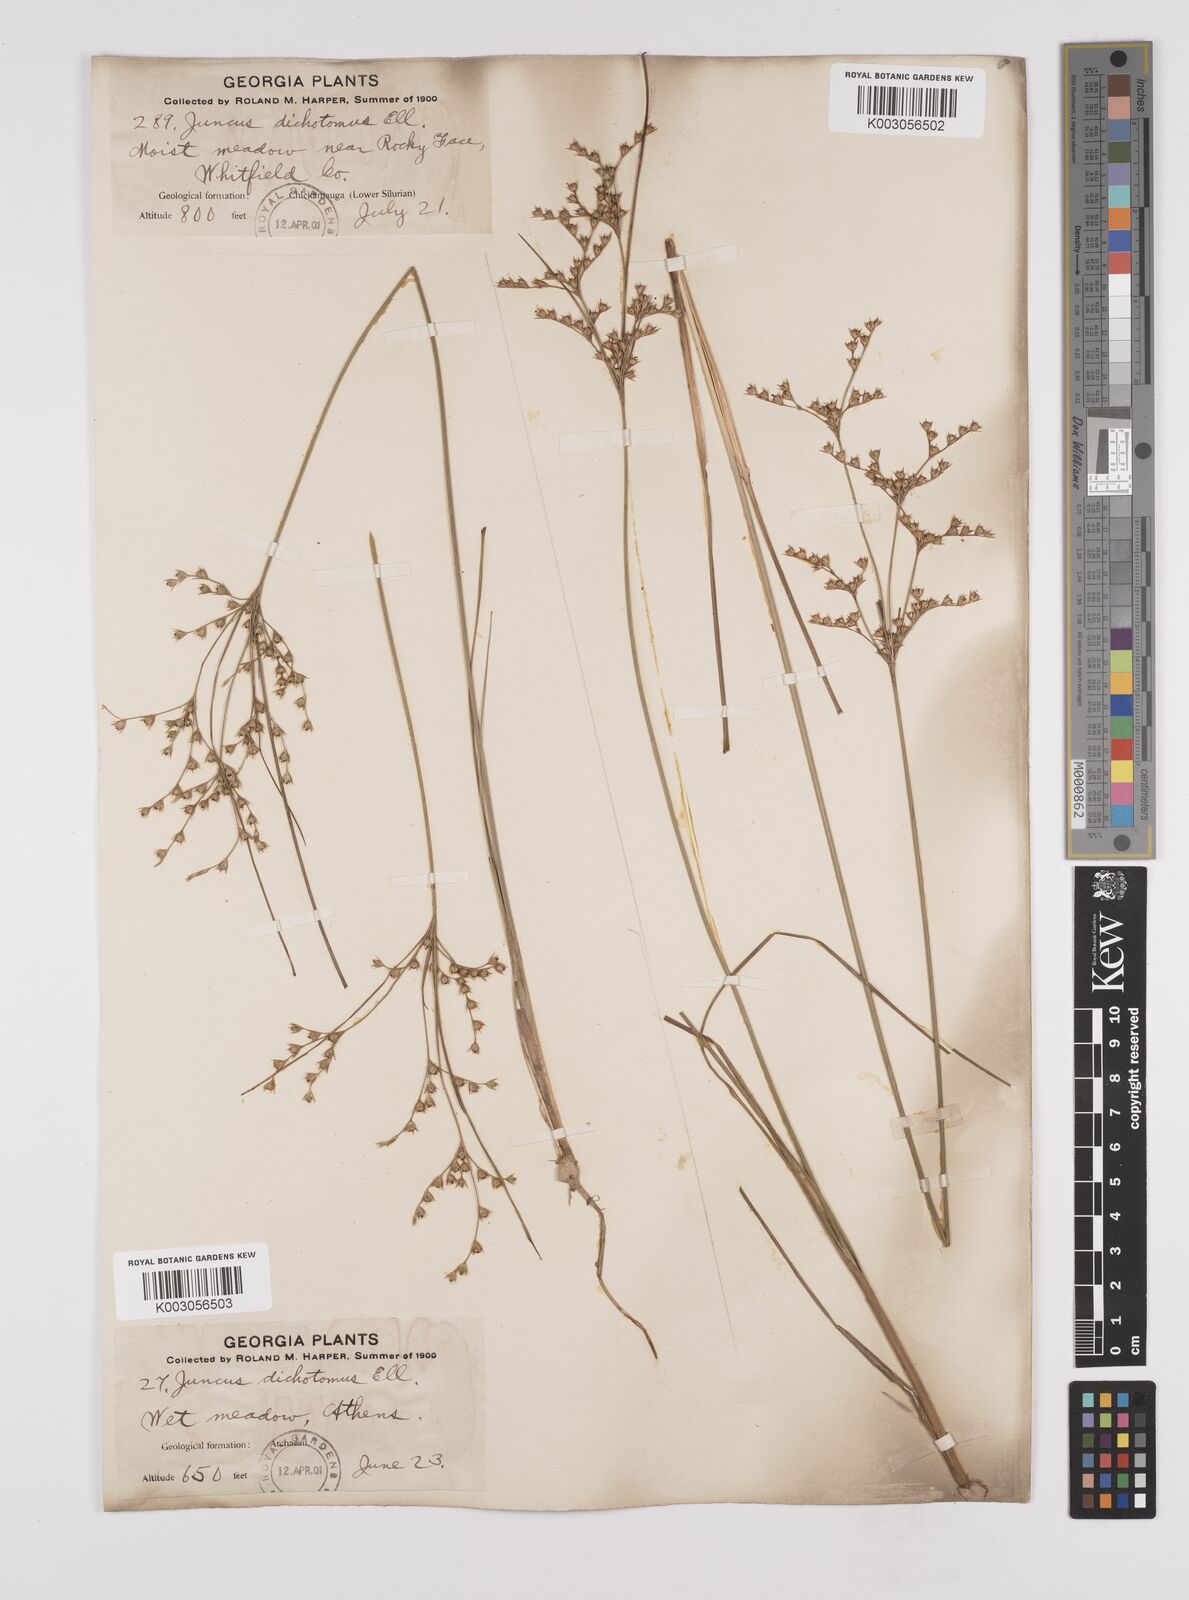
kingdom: Plantae
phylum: Tracheophyta
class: Liliopsida
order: Poales
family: Juncaceae
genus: Juncus
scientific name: Juncus dichotomus
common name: Forked rush
